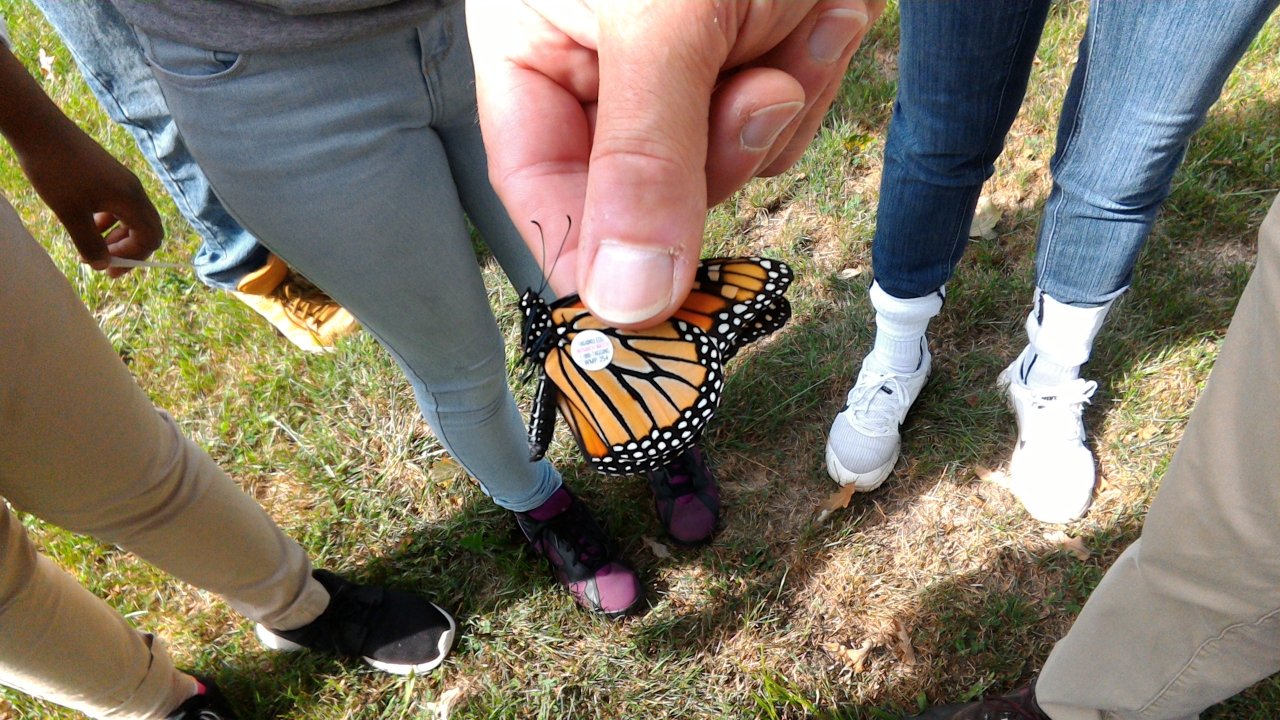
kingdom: Animalia
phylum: Arthropoda
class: Insecta
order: Lepidoptera
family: Nymphalidae
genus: Danaus
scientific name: Danaus plexippus
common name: Monarch
